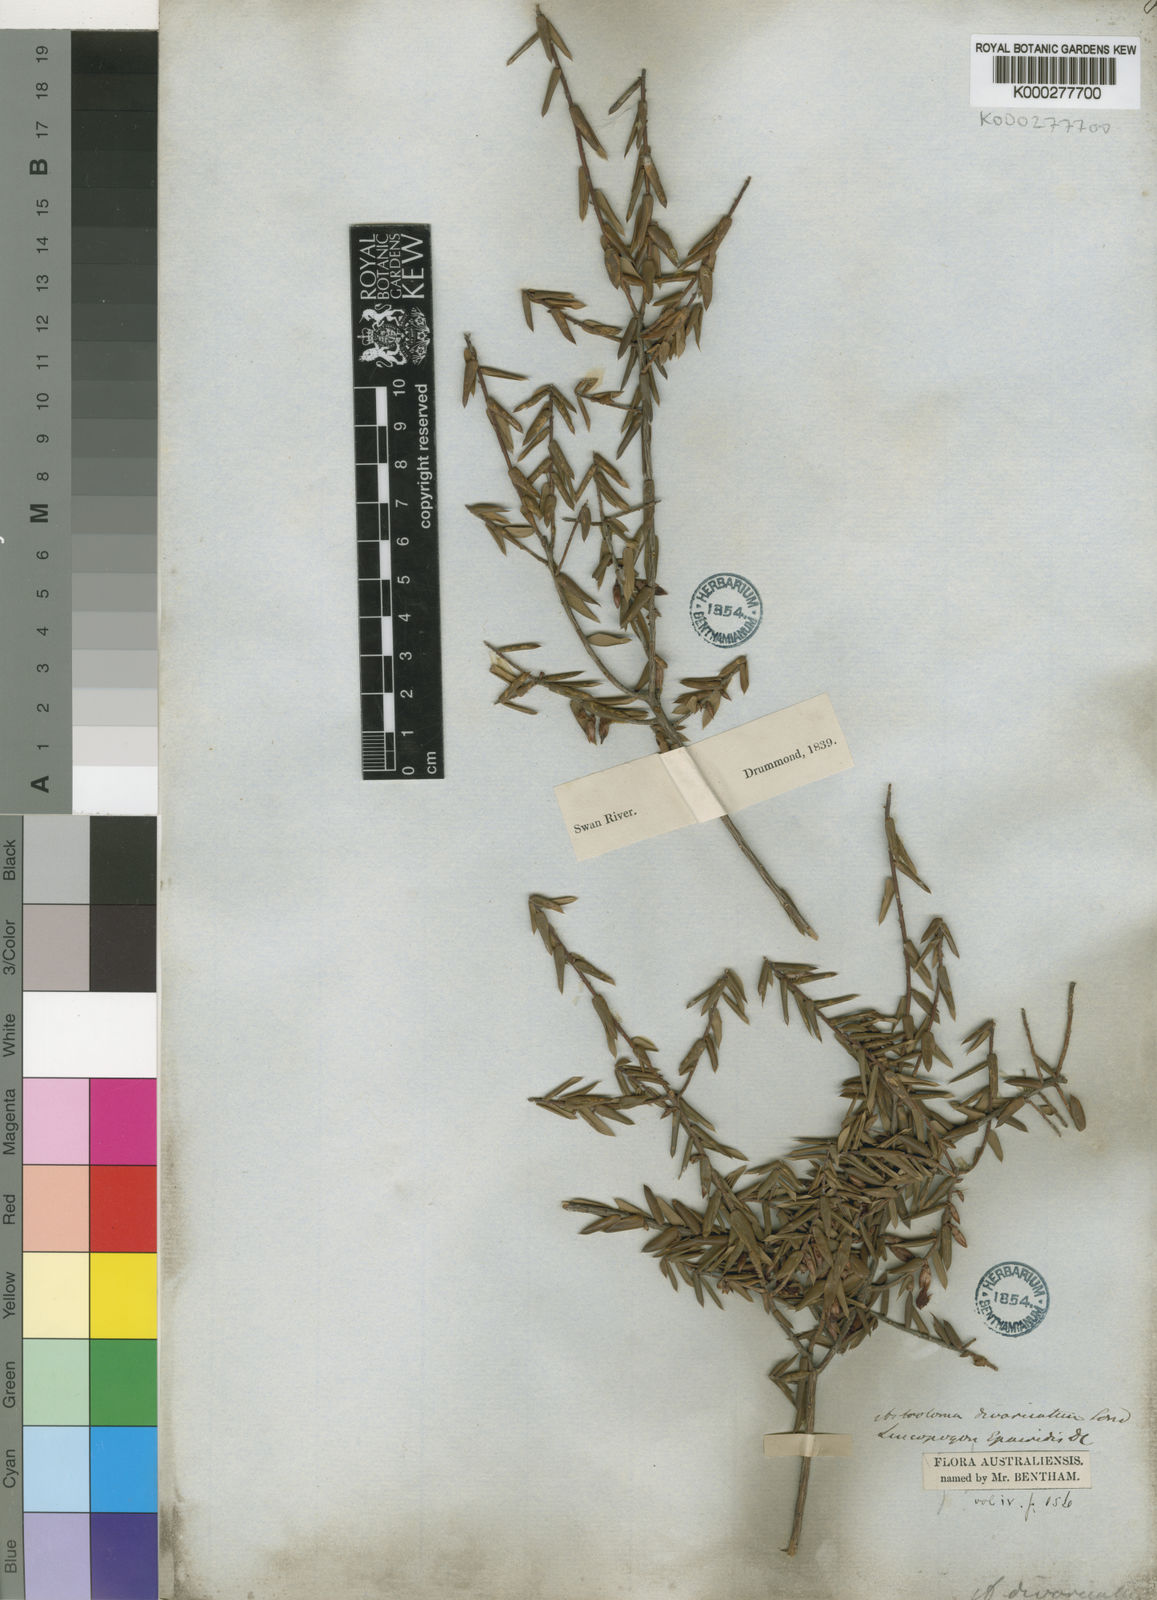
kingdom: Plantae
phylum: Tracheophyta
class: Magnoliopsida
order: Ericales
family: Ericaceae
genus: Styphelia
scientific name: Styphelia epacridis
